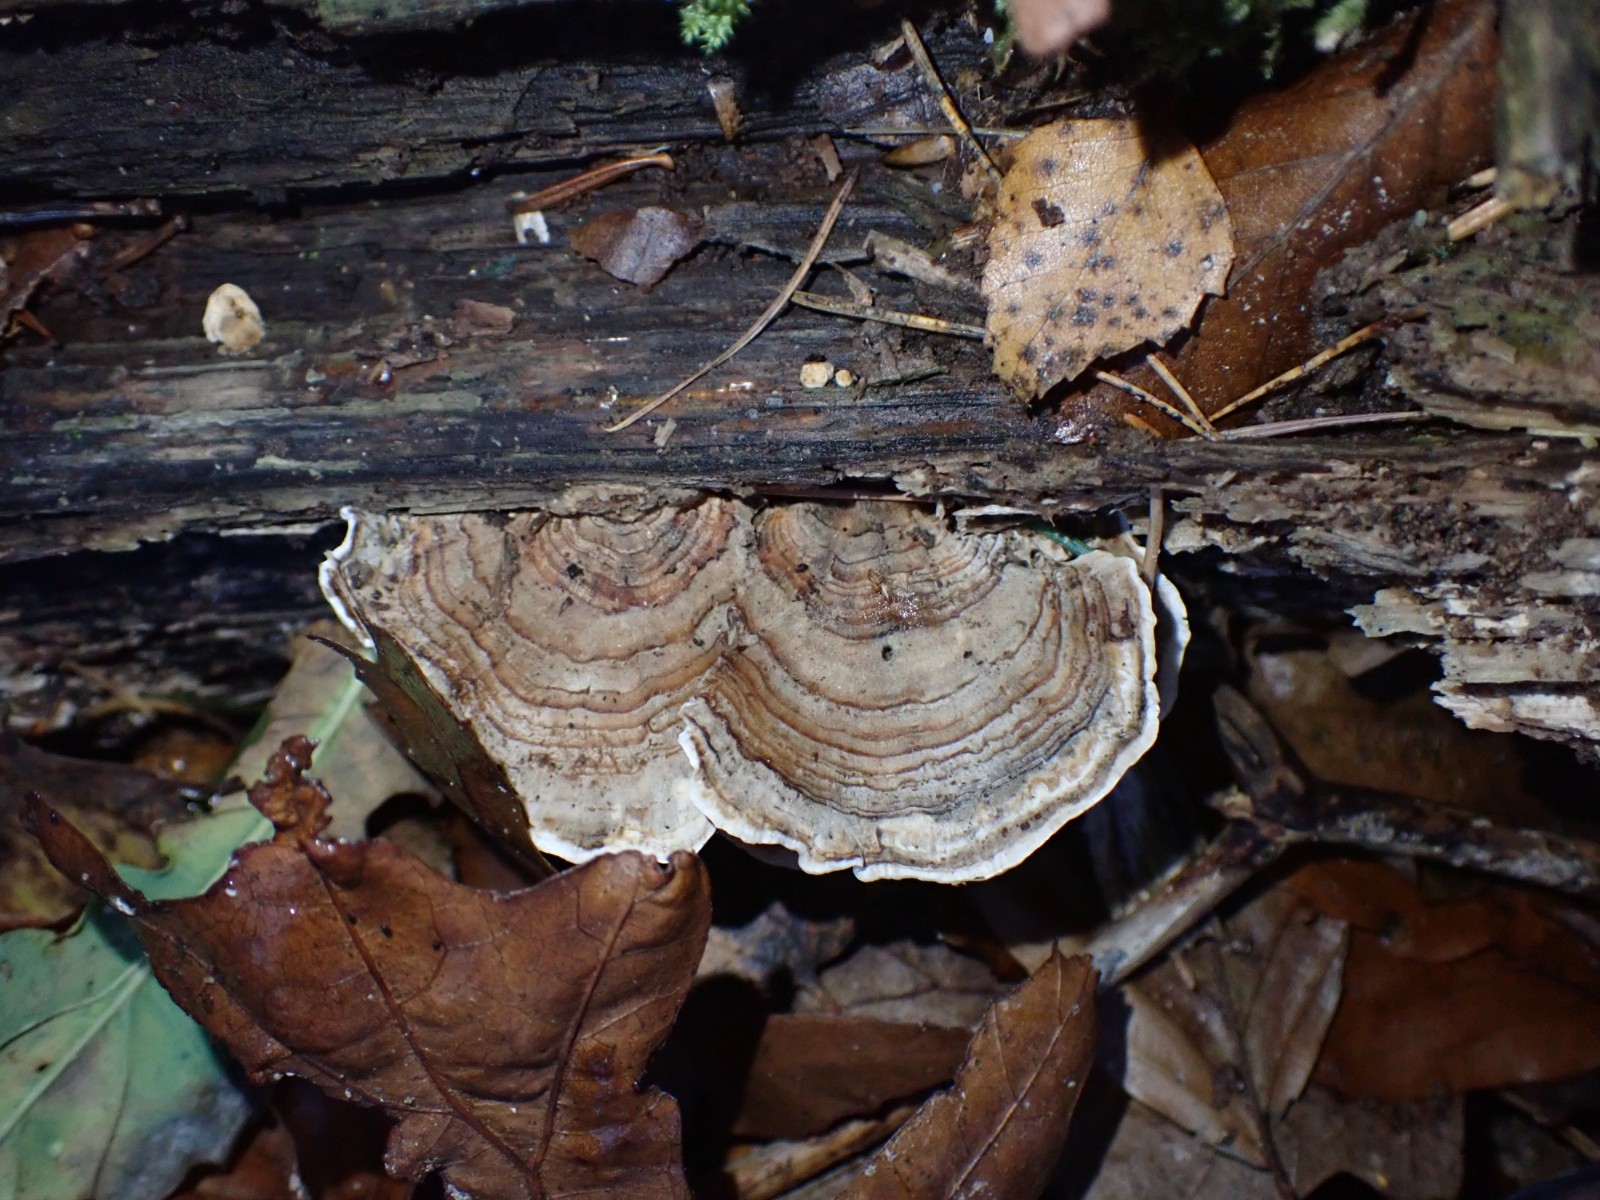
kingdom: Fungi
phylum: Basidiomycota
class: Agaricomycetes
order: Polyporales
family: Polyporaceae
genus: Trametes
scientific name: Trametes versicolor
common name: broget læderporesvamp
